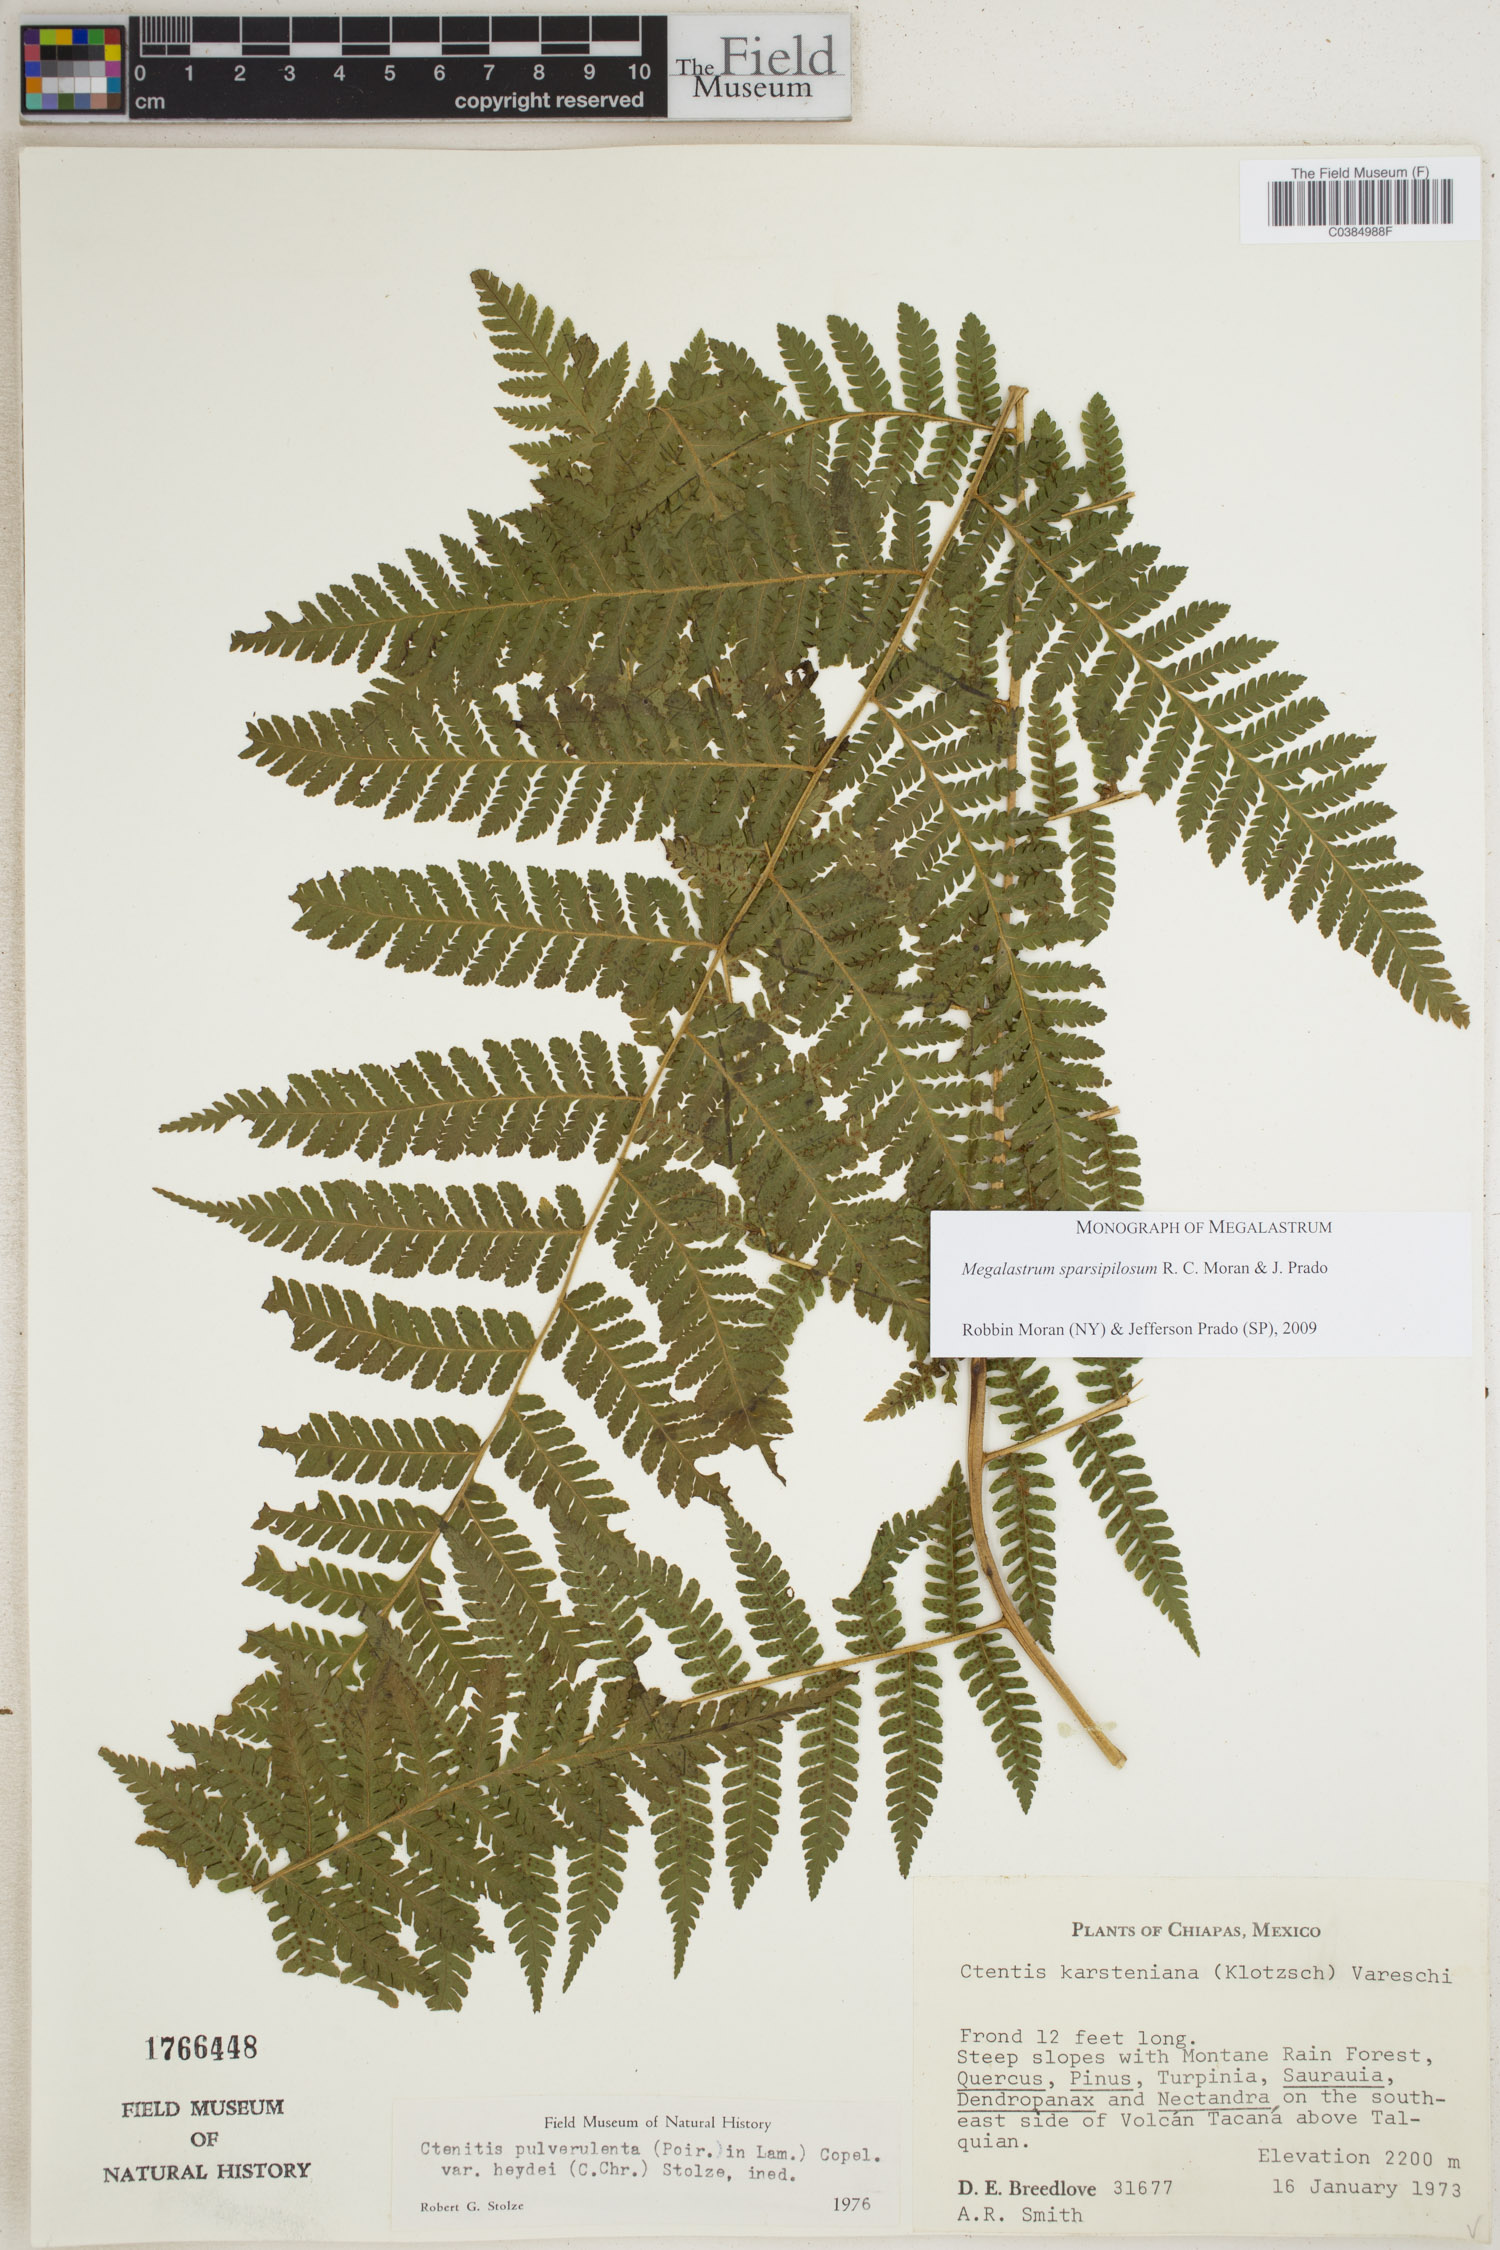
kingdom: Plantae
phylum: Tracheophyta
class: Polypodiopsida
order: Polypodiales
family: Dryopteridaceae
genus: Megalastrum
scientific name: Megalastrum sparsipilosum
